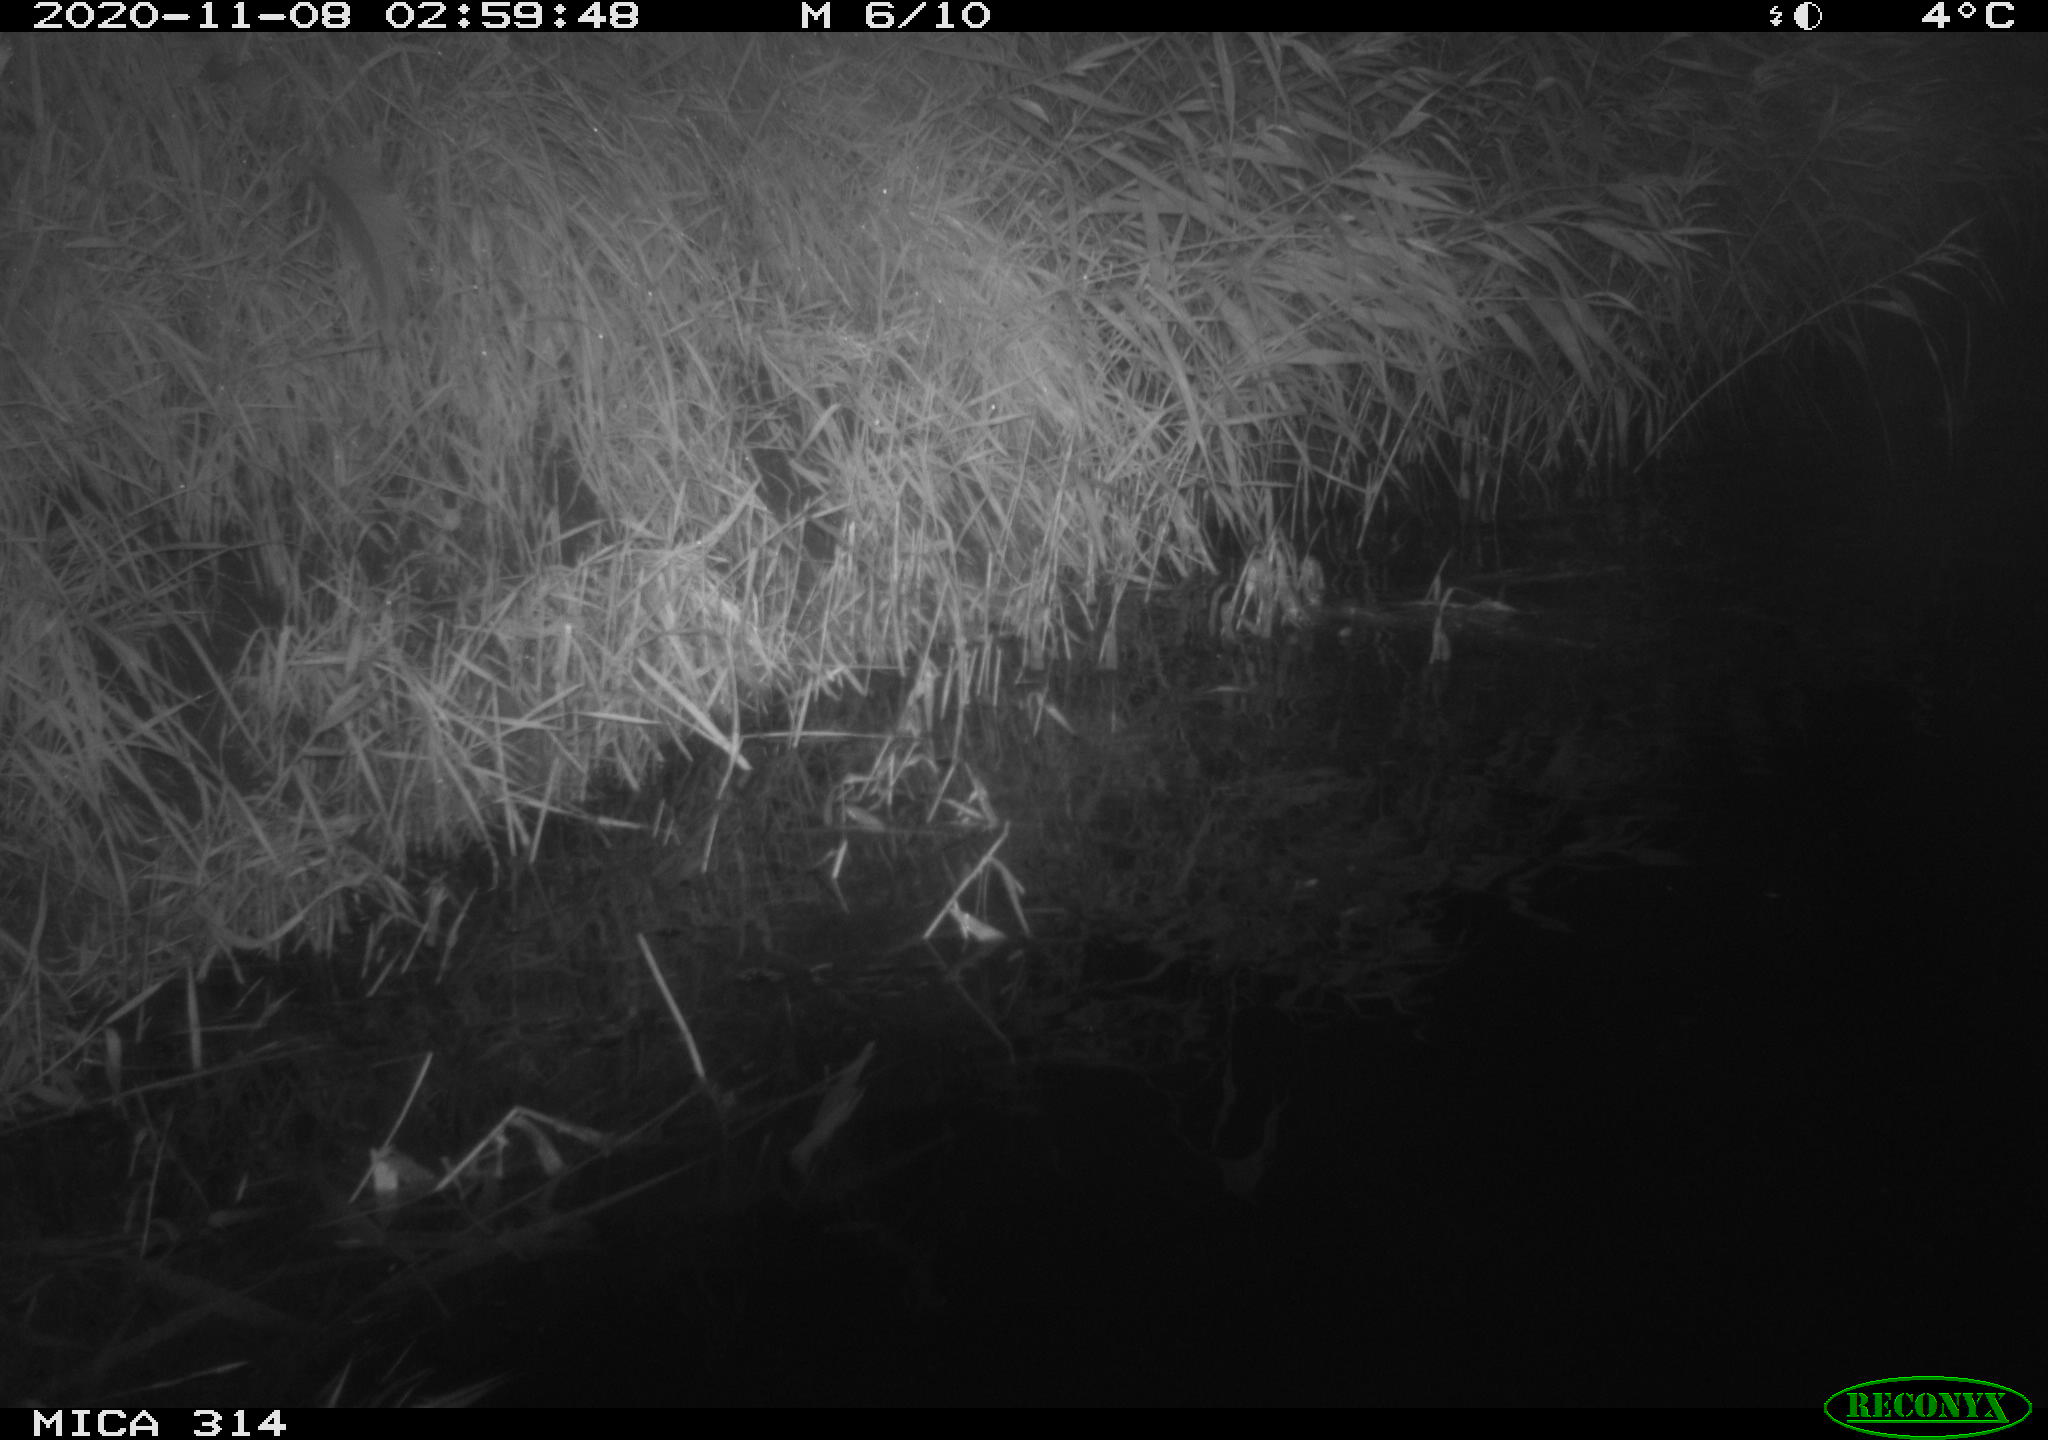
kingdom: Animalia
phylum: Chordata
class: Mammalia
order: Rodentia
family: Muridae
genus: Rattus
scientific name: Rattus norvegicus
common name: Brown rat
